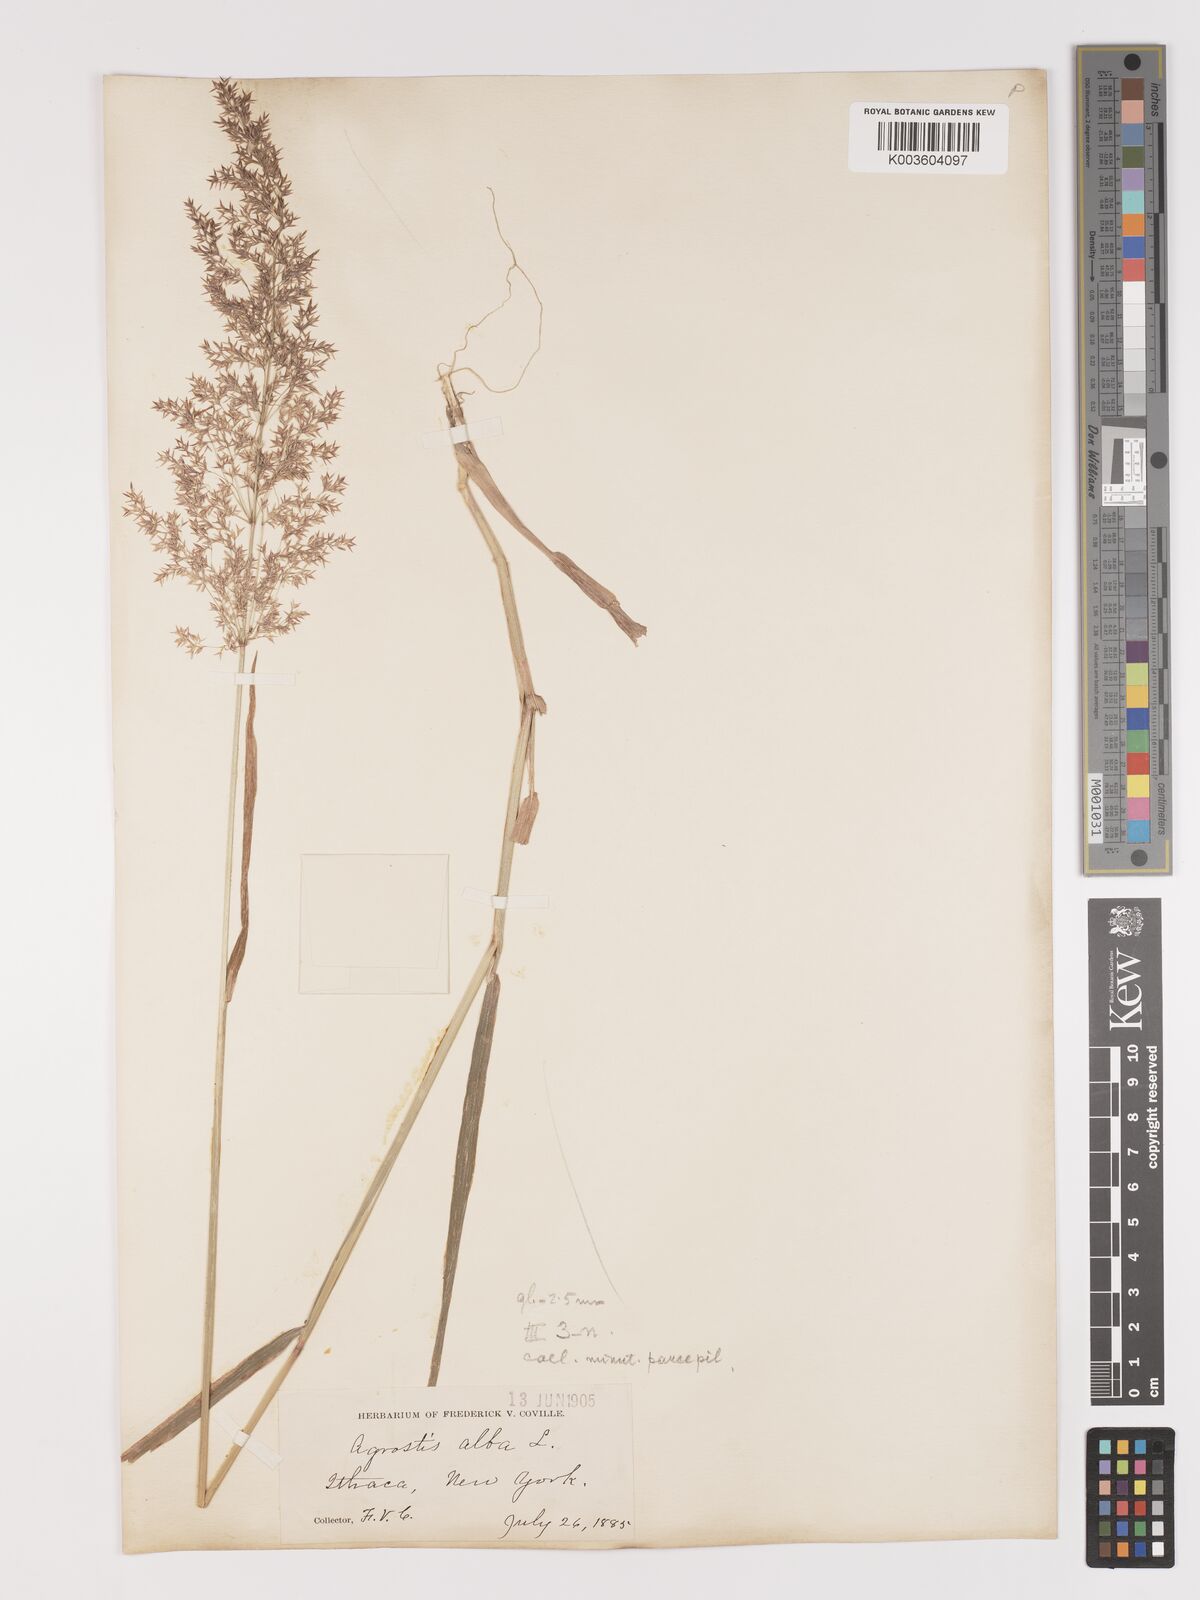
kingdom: Plantae
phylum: Tracheophyta
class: Liliopsida
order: Poales
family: Poaceae
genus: Agrostis
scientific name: Agrostis gigantea
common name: Black bent
